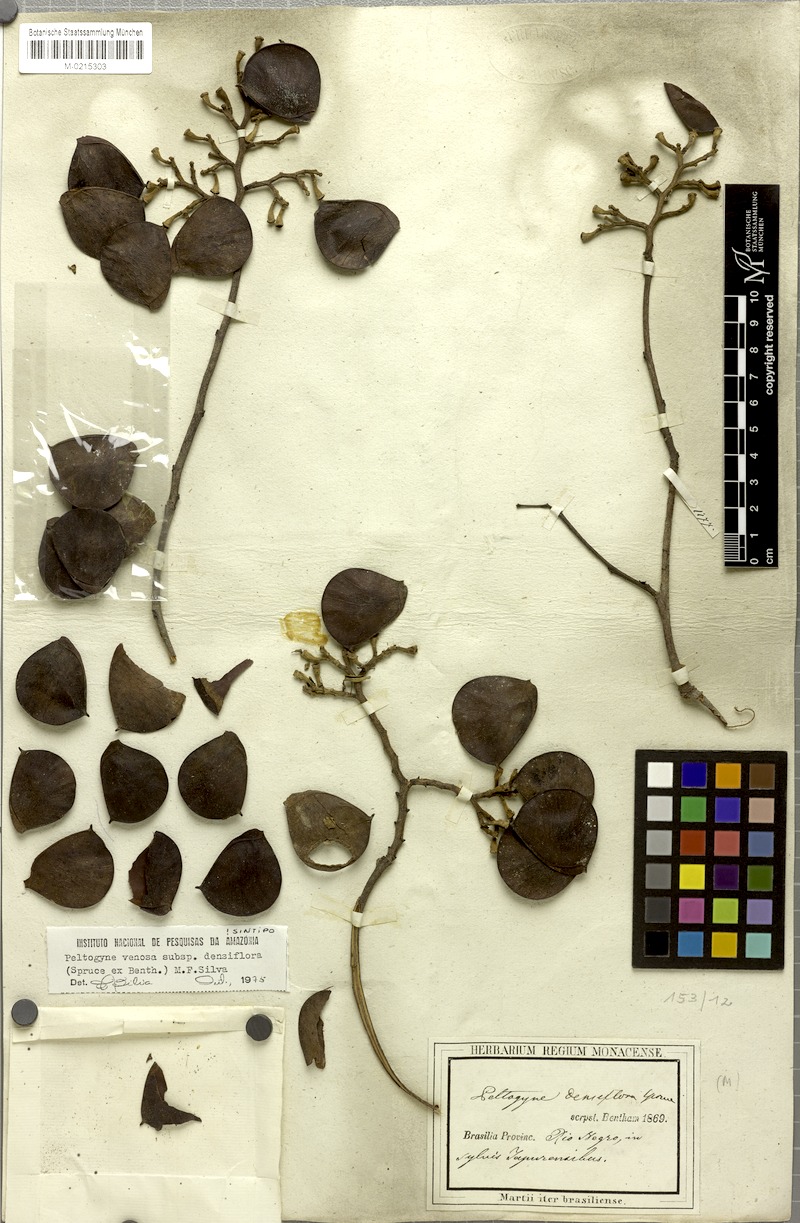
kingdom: Plantae
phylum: Tracheophyta
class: Magnoliopsida
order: Fabales
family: Fabaceae
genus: Peltogyne
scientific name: Peltogyne venosa
